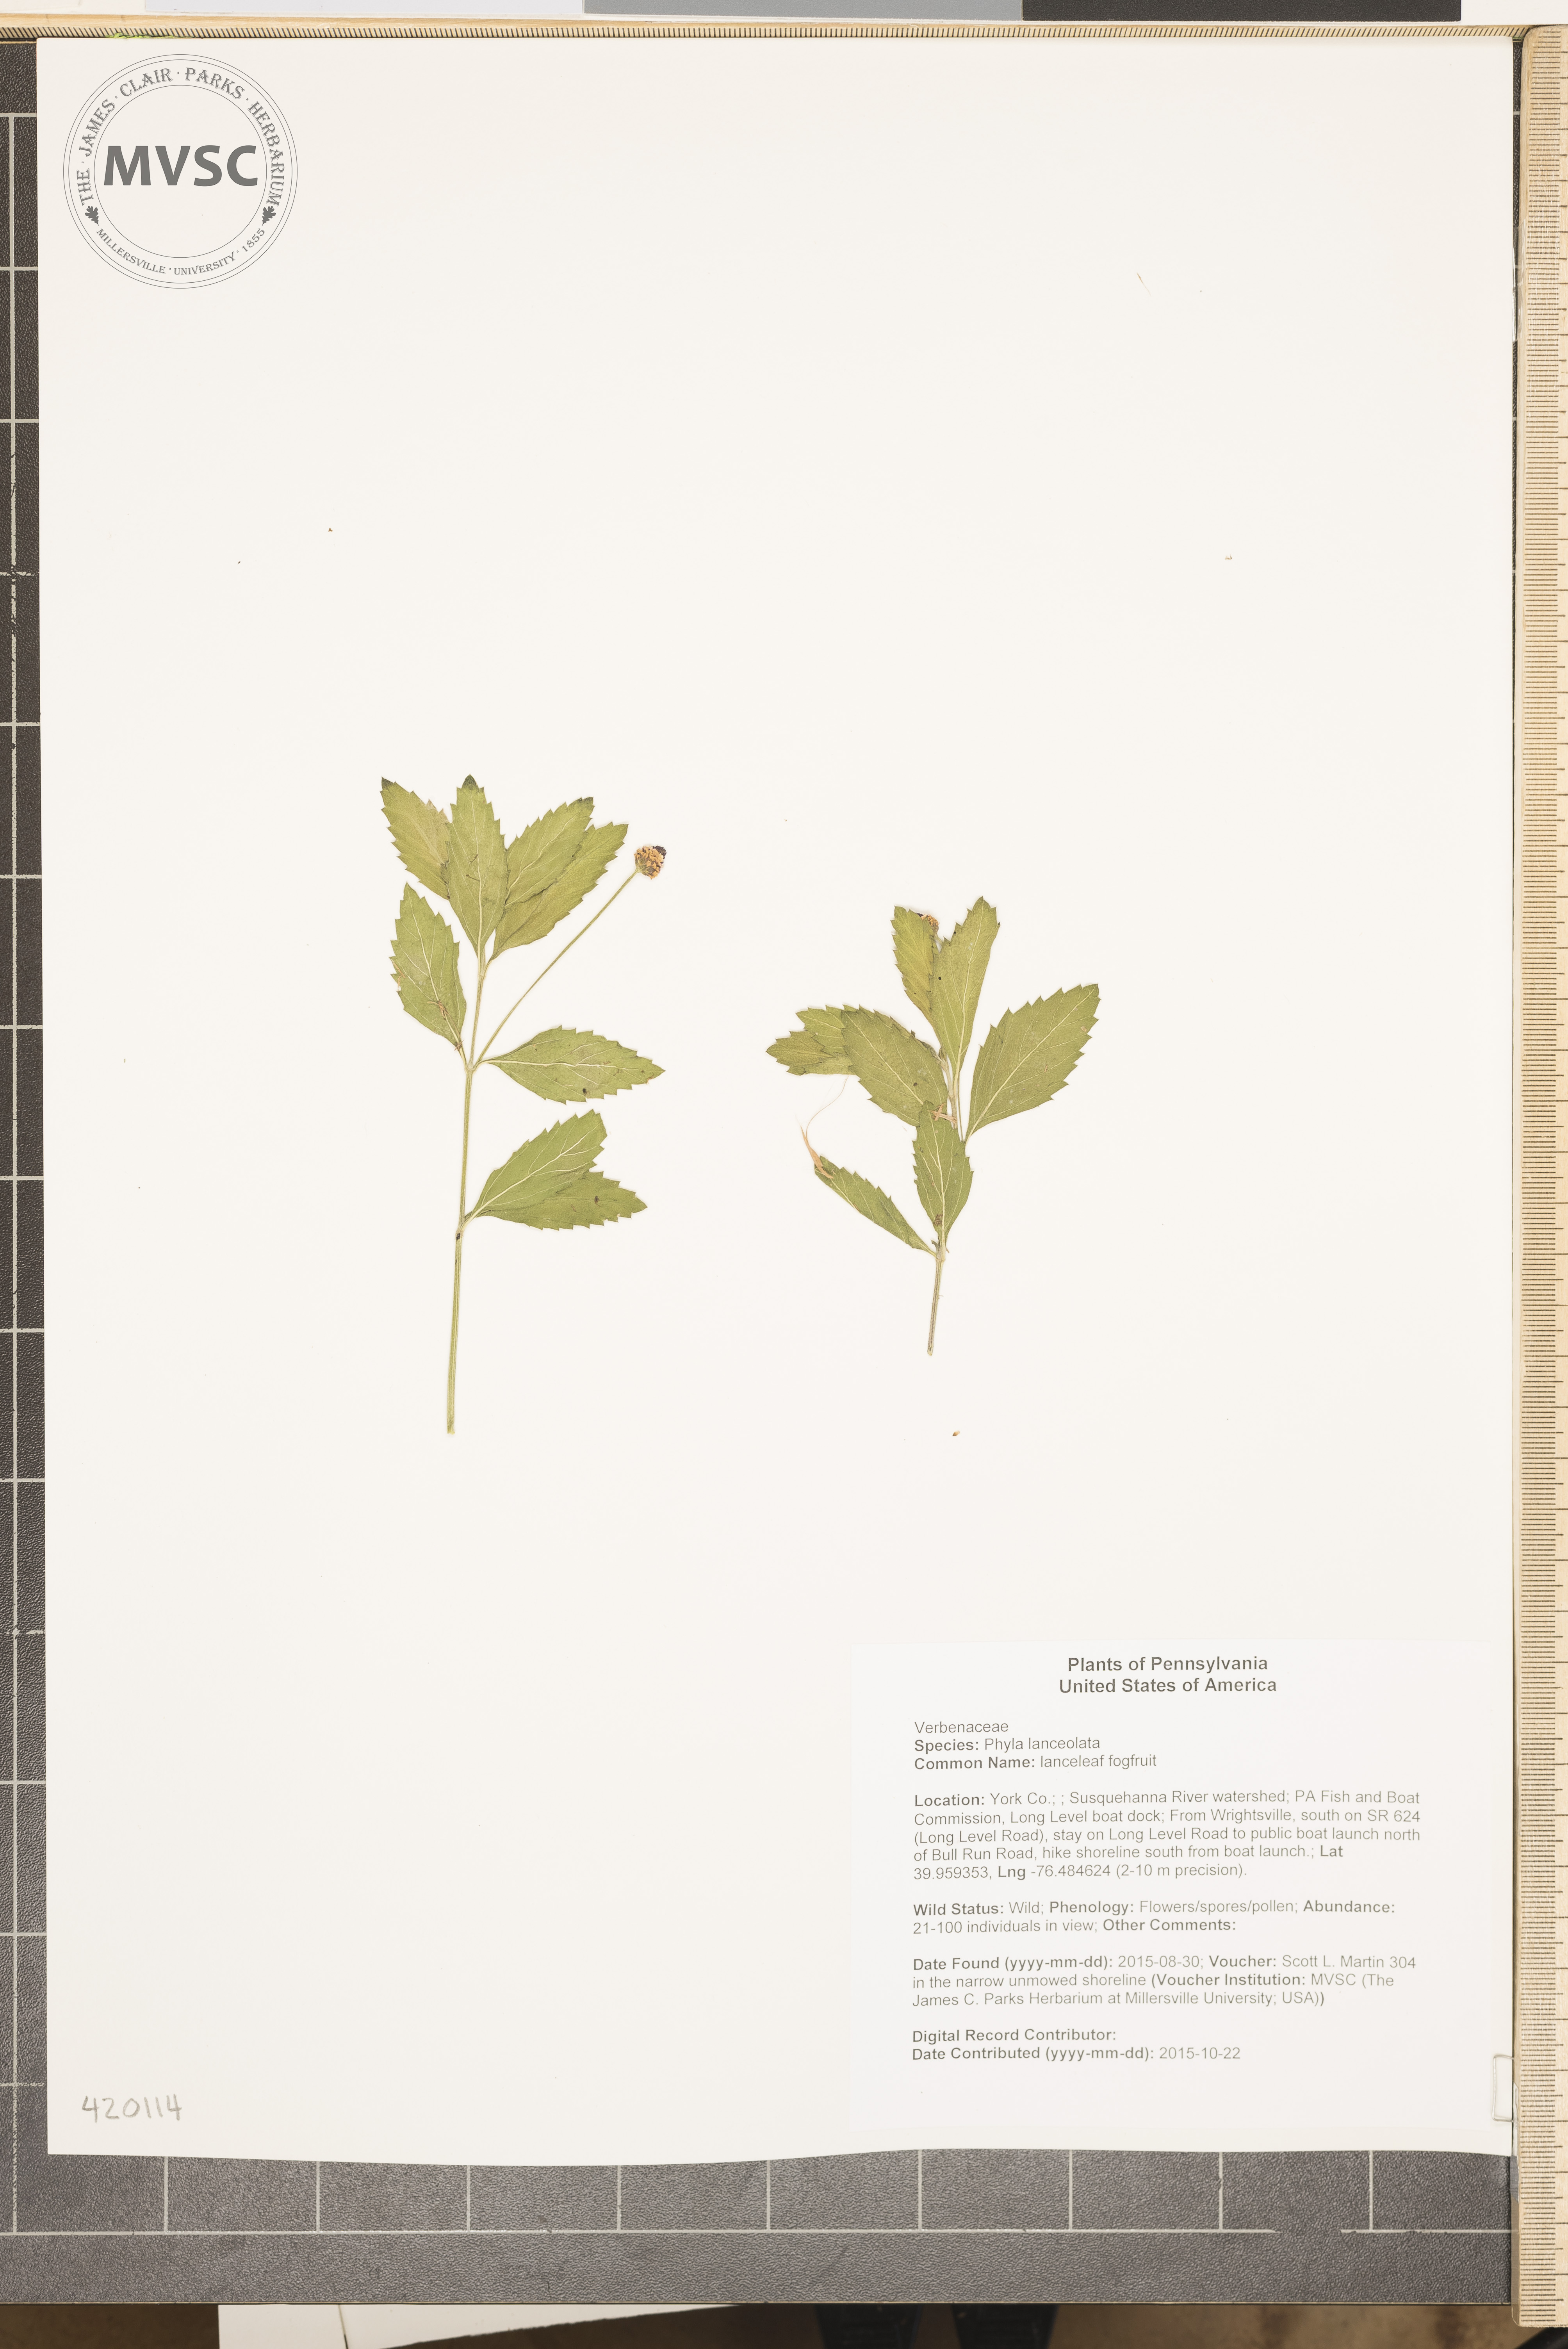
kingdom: Plantae
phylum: Tracheophyta
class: Magnoliopsida
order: Lamiales
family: Verbenaceae
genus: Phyla
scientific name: Phyla lanceolata
